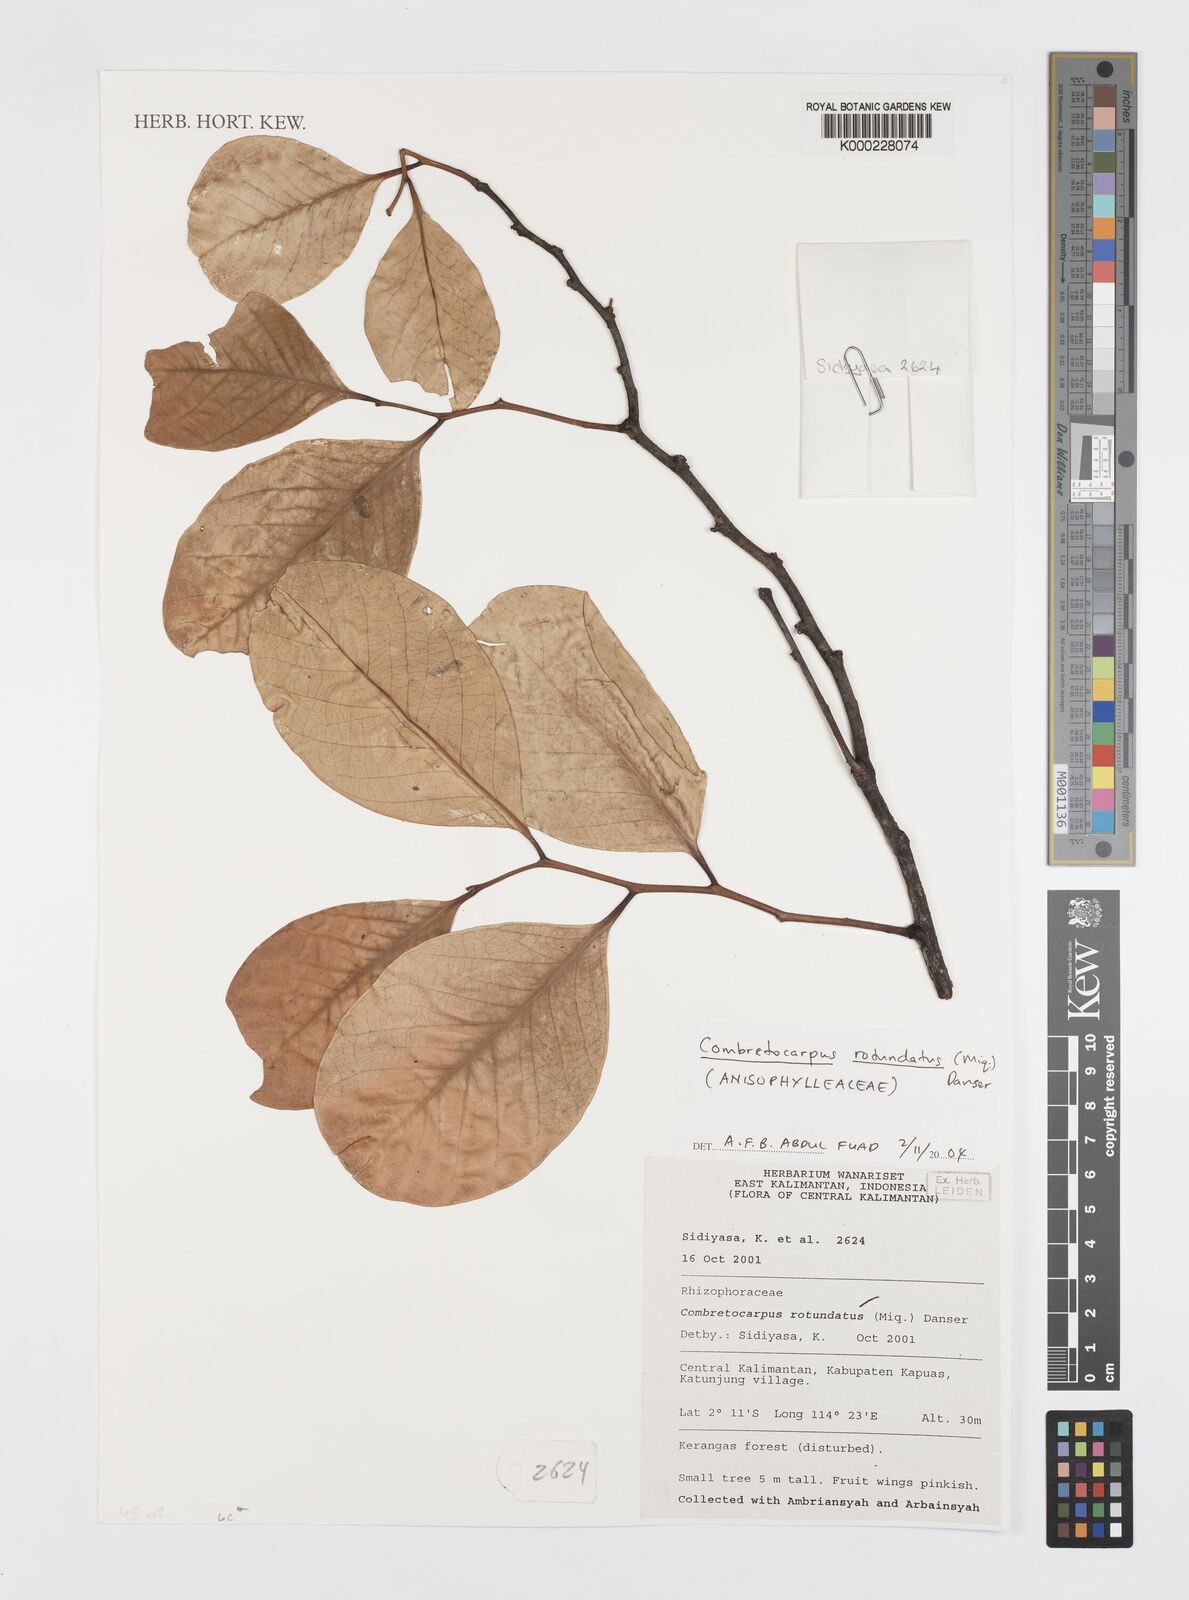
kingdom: Plantae
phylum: Tracheophyta
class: Magnoliopsida
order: Cucurbitales
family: Anisophylleaceae
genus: Combretocarpus
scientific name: Combretocarpus rotundatus
